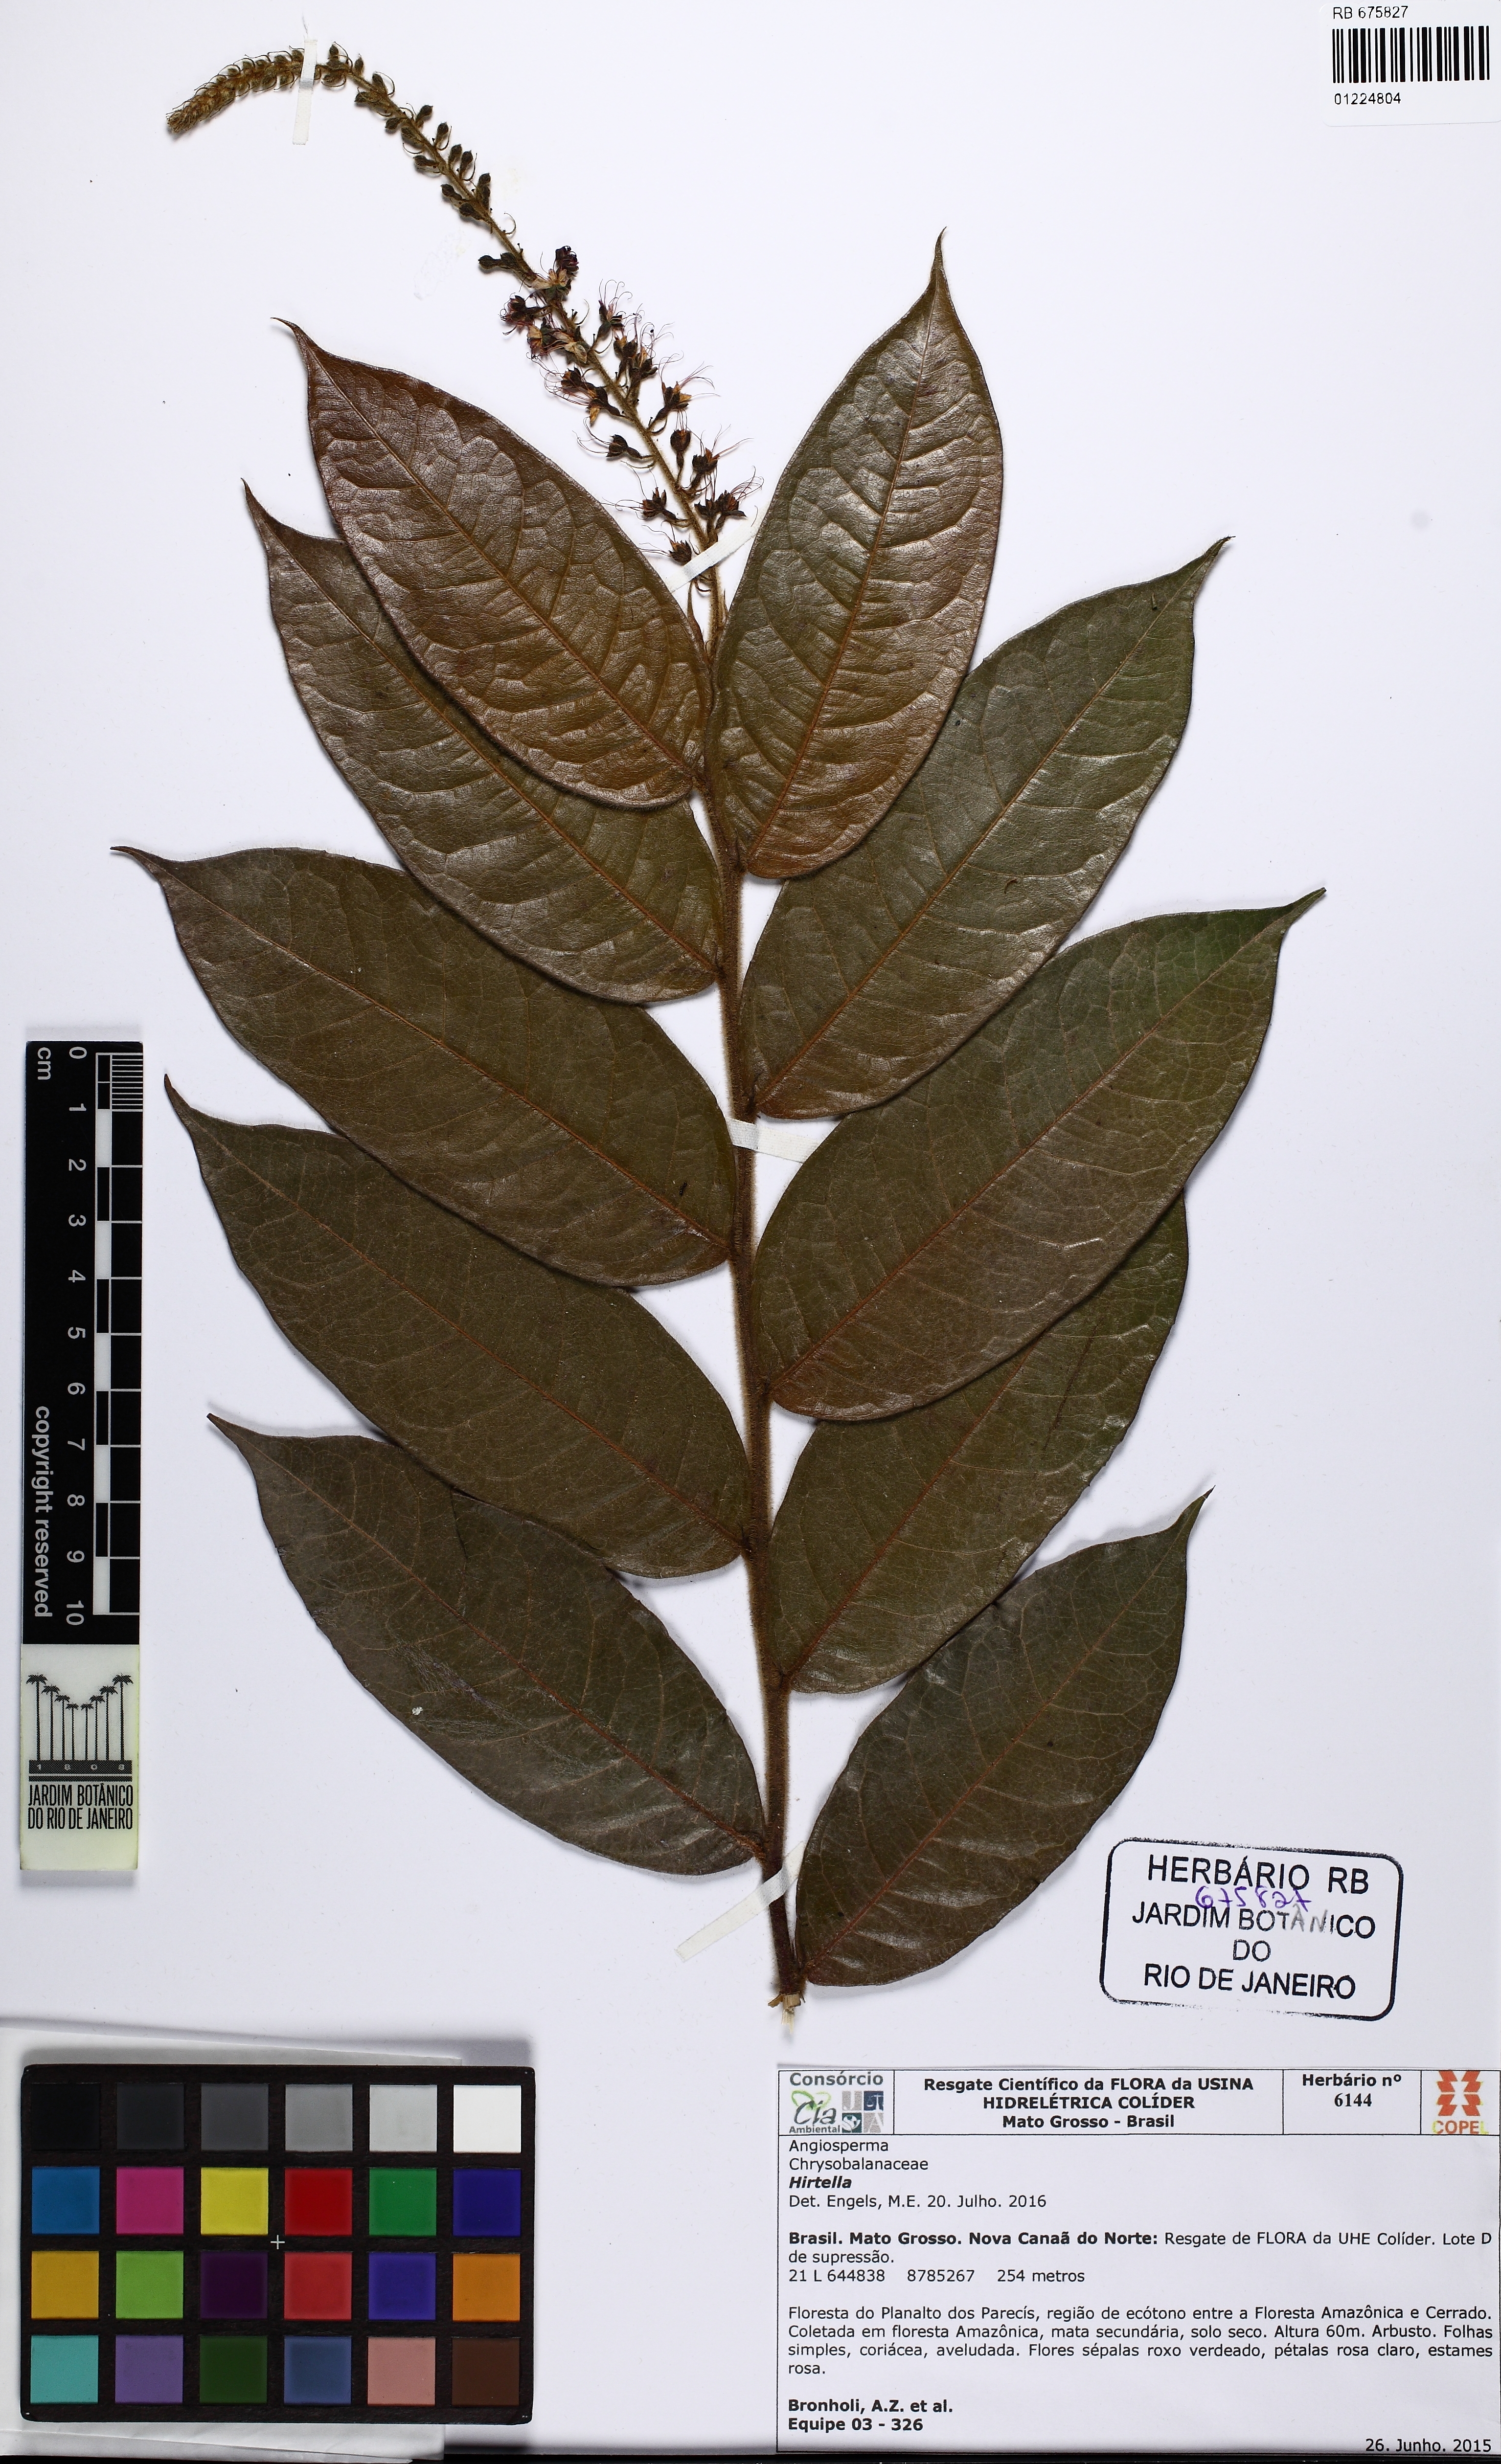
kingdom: Plantae
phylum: Tracheophyta
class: Magnoliopsida
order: Malpighiales
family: Chrysobalanaceae
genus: Hirtella
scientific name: Hirtella burchellii
